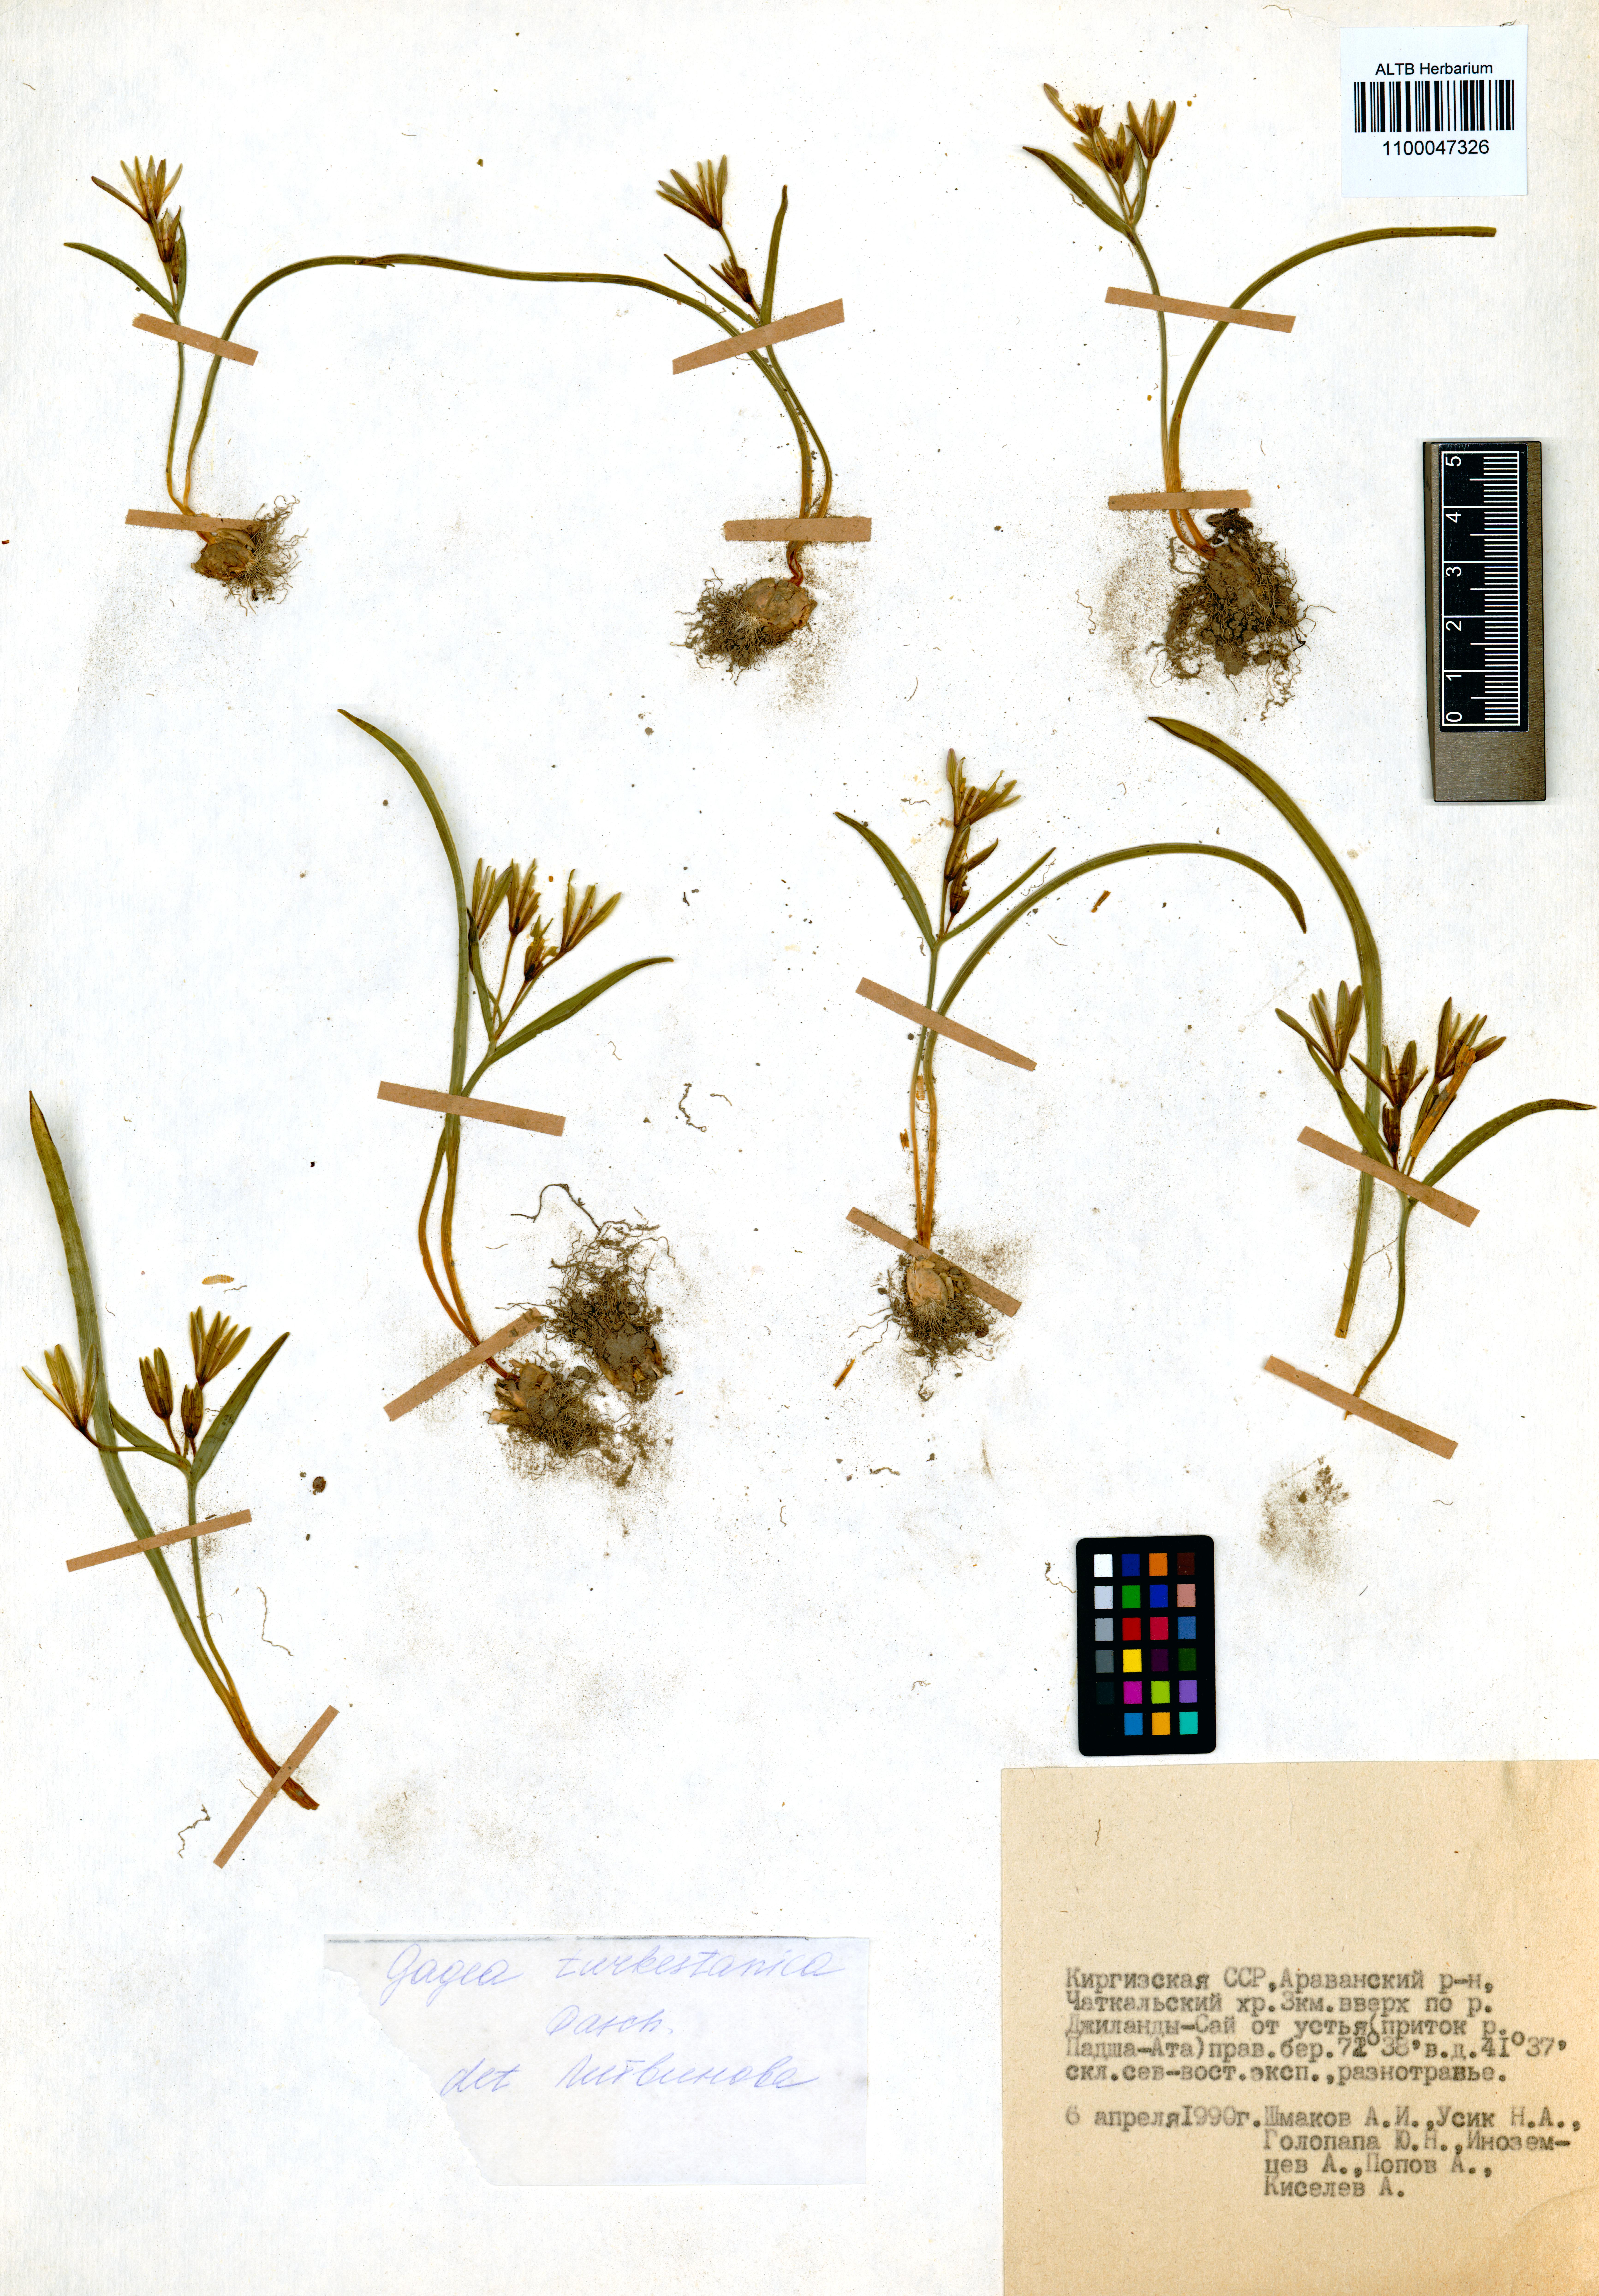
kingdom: Plantae
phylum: Tracheophyta
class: Liliopsida
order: Liliales
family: Liliaceae
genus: Gagea
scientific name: Gagea capusii
